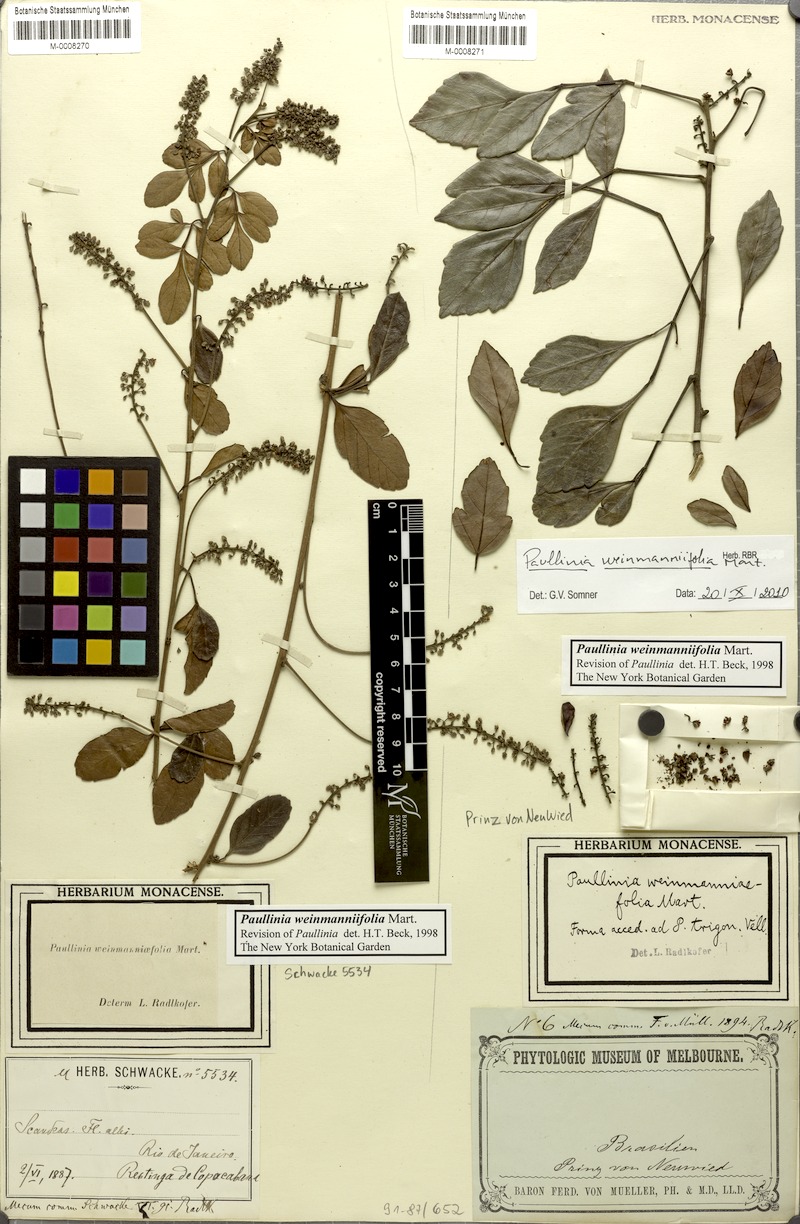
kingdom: Plantae
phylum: Tracheophyta
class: Magnoliopsida
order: Sapindales
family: Sapindaceae
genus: Paullinia
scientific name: Paullinia weinmanniifolia
